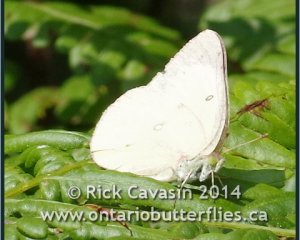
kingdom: Animalia
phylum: Arthropoda
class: Insecta
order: Lepidoptera
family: Pieridae
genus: Colias
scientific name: Colias philodice
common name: Clouded Sulphur
